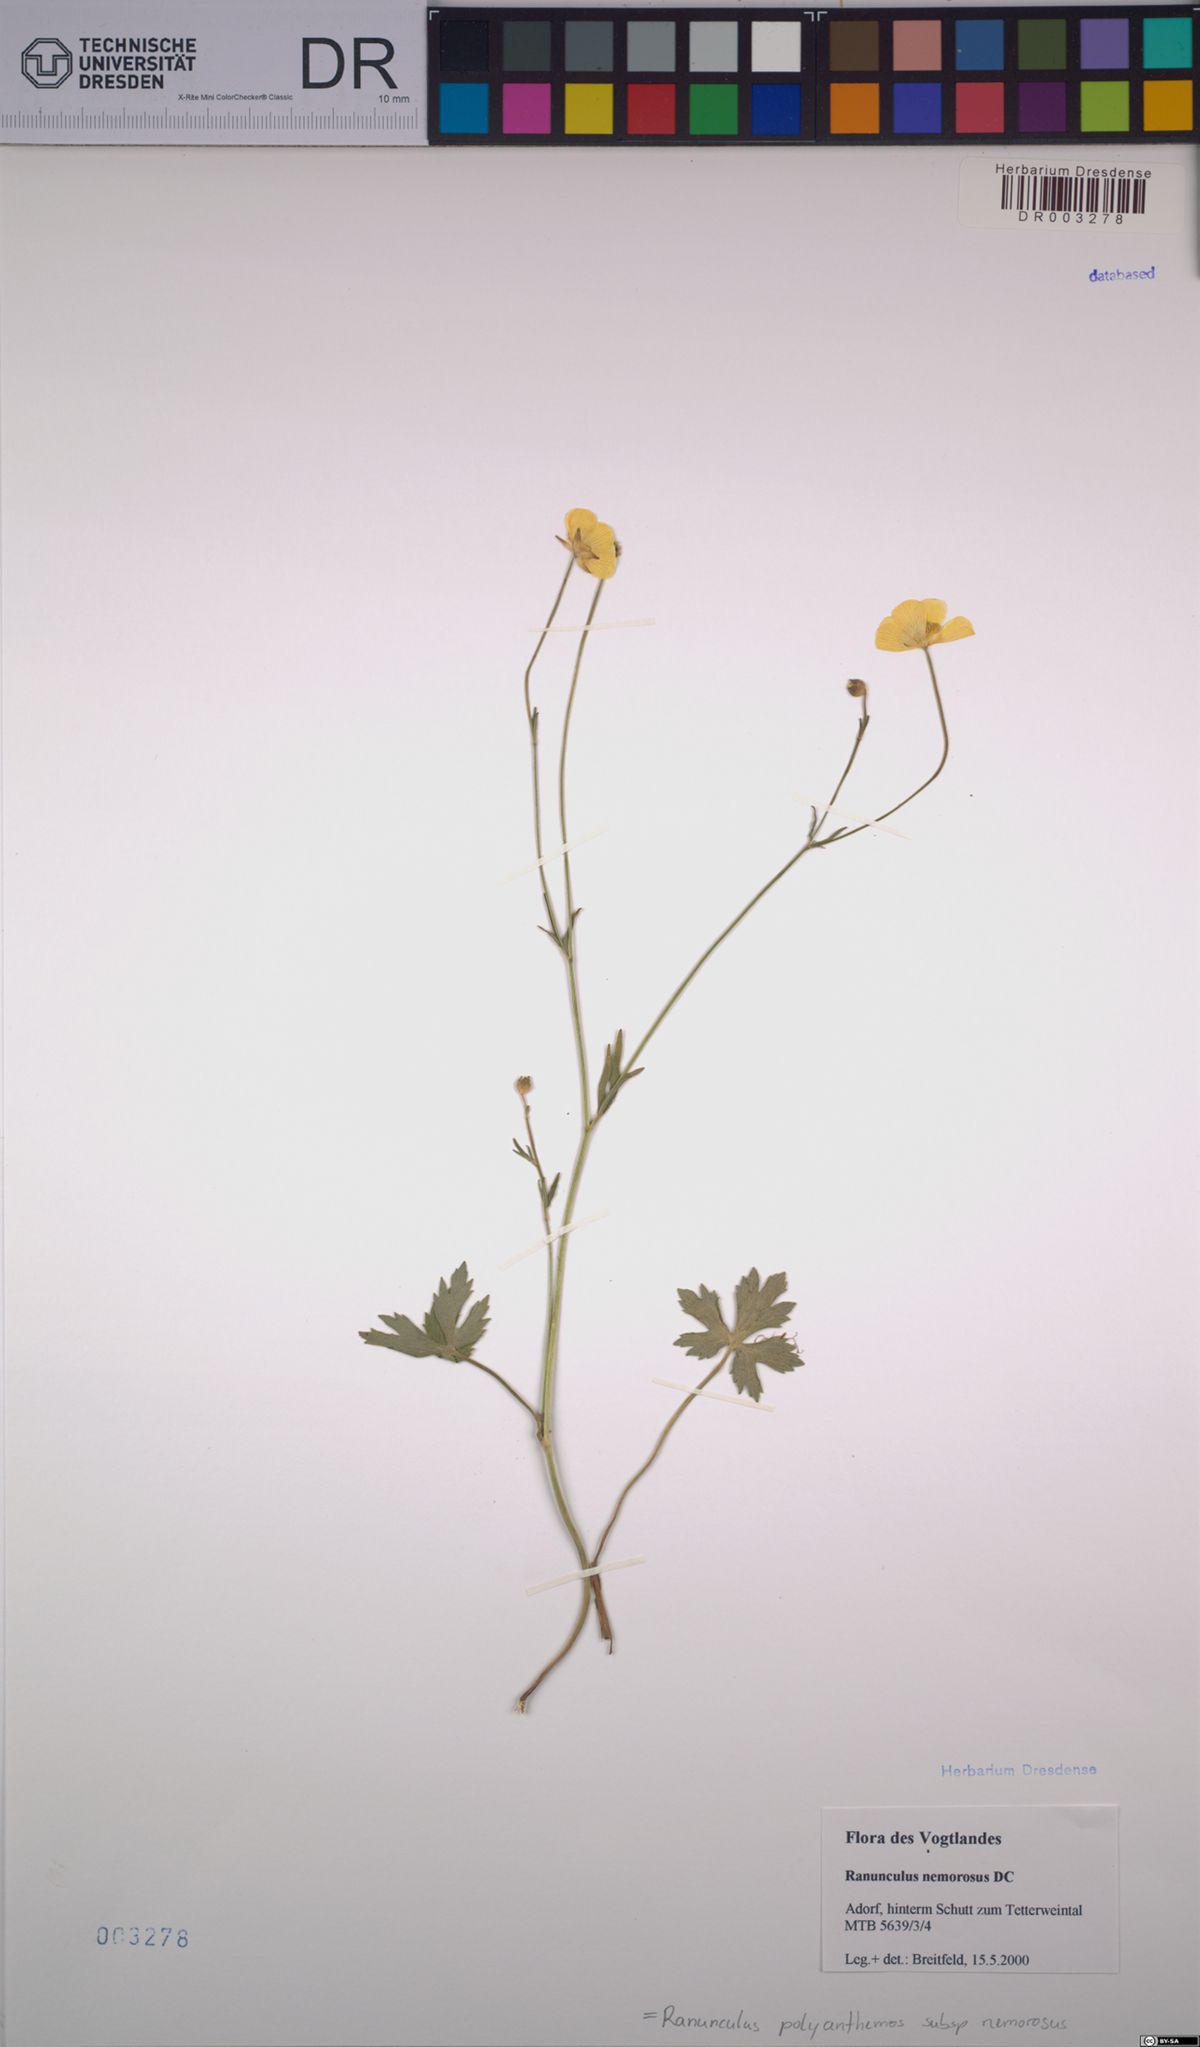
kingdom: Plantae
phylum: Tracheophyta
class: Magnoliopsida
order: Ranunculales
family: Ranunculaceae
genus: Ranunculus
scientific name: Ranunculus polyanthemos
